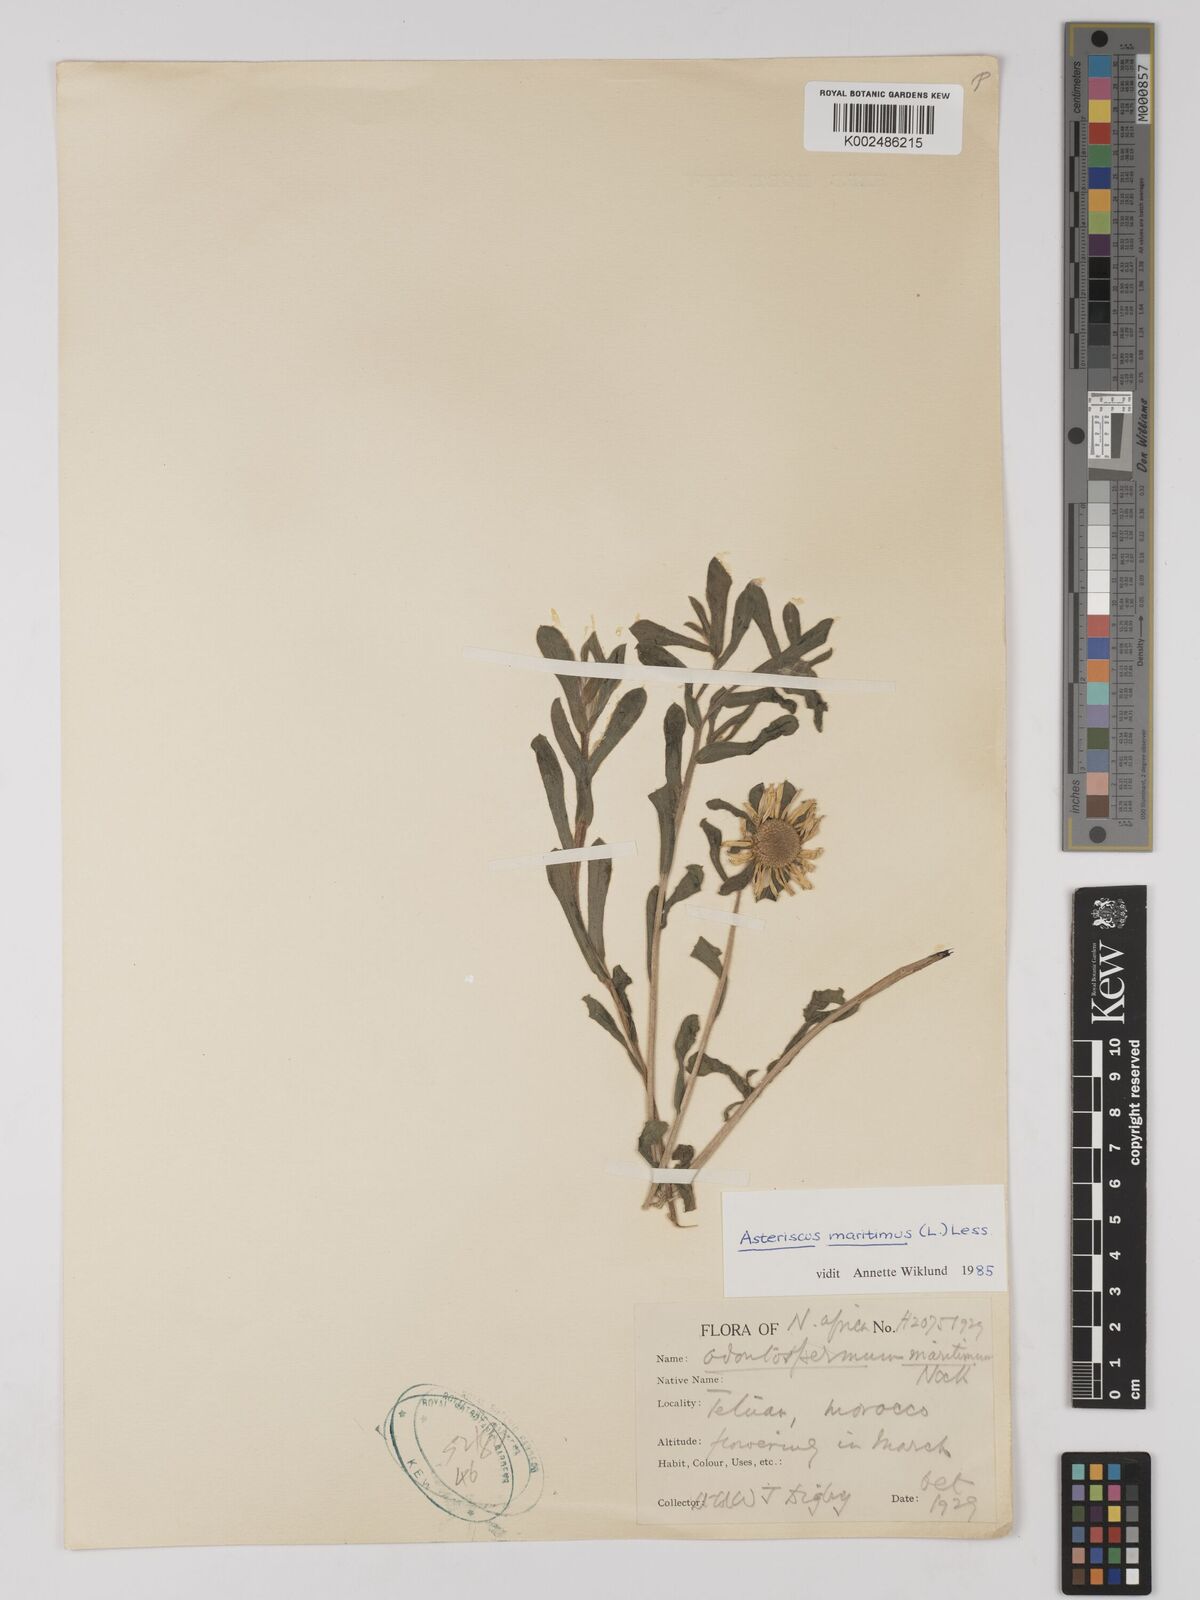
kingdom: Plantae
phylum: Tracheophyta
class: Magnoliopsida
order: Asterales
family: Asteraceae
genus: Pallenis
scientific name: Pallenis maritima
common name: Golden coin daisy
